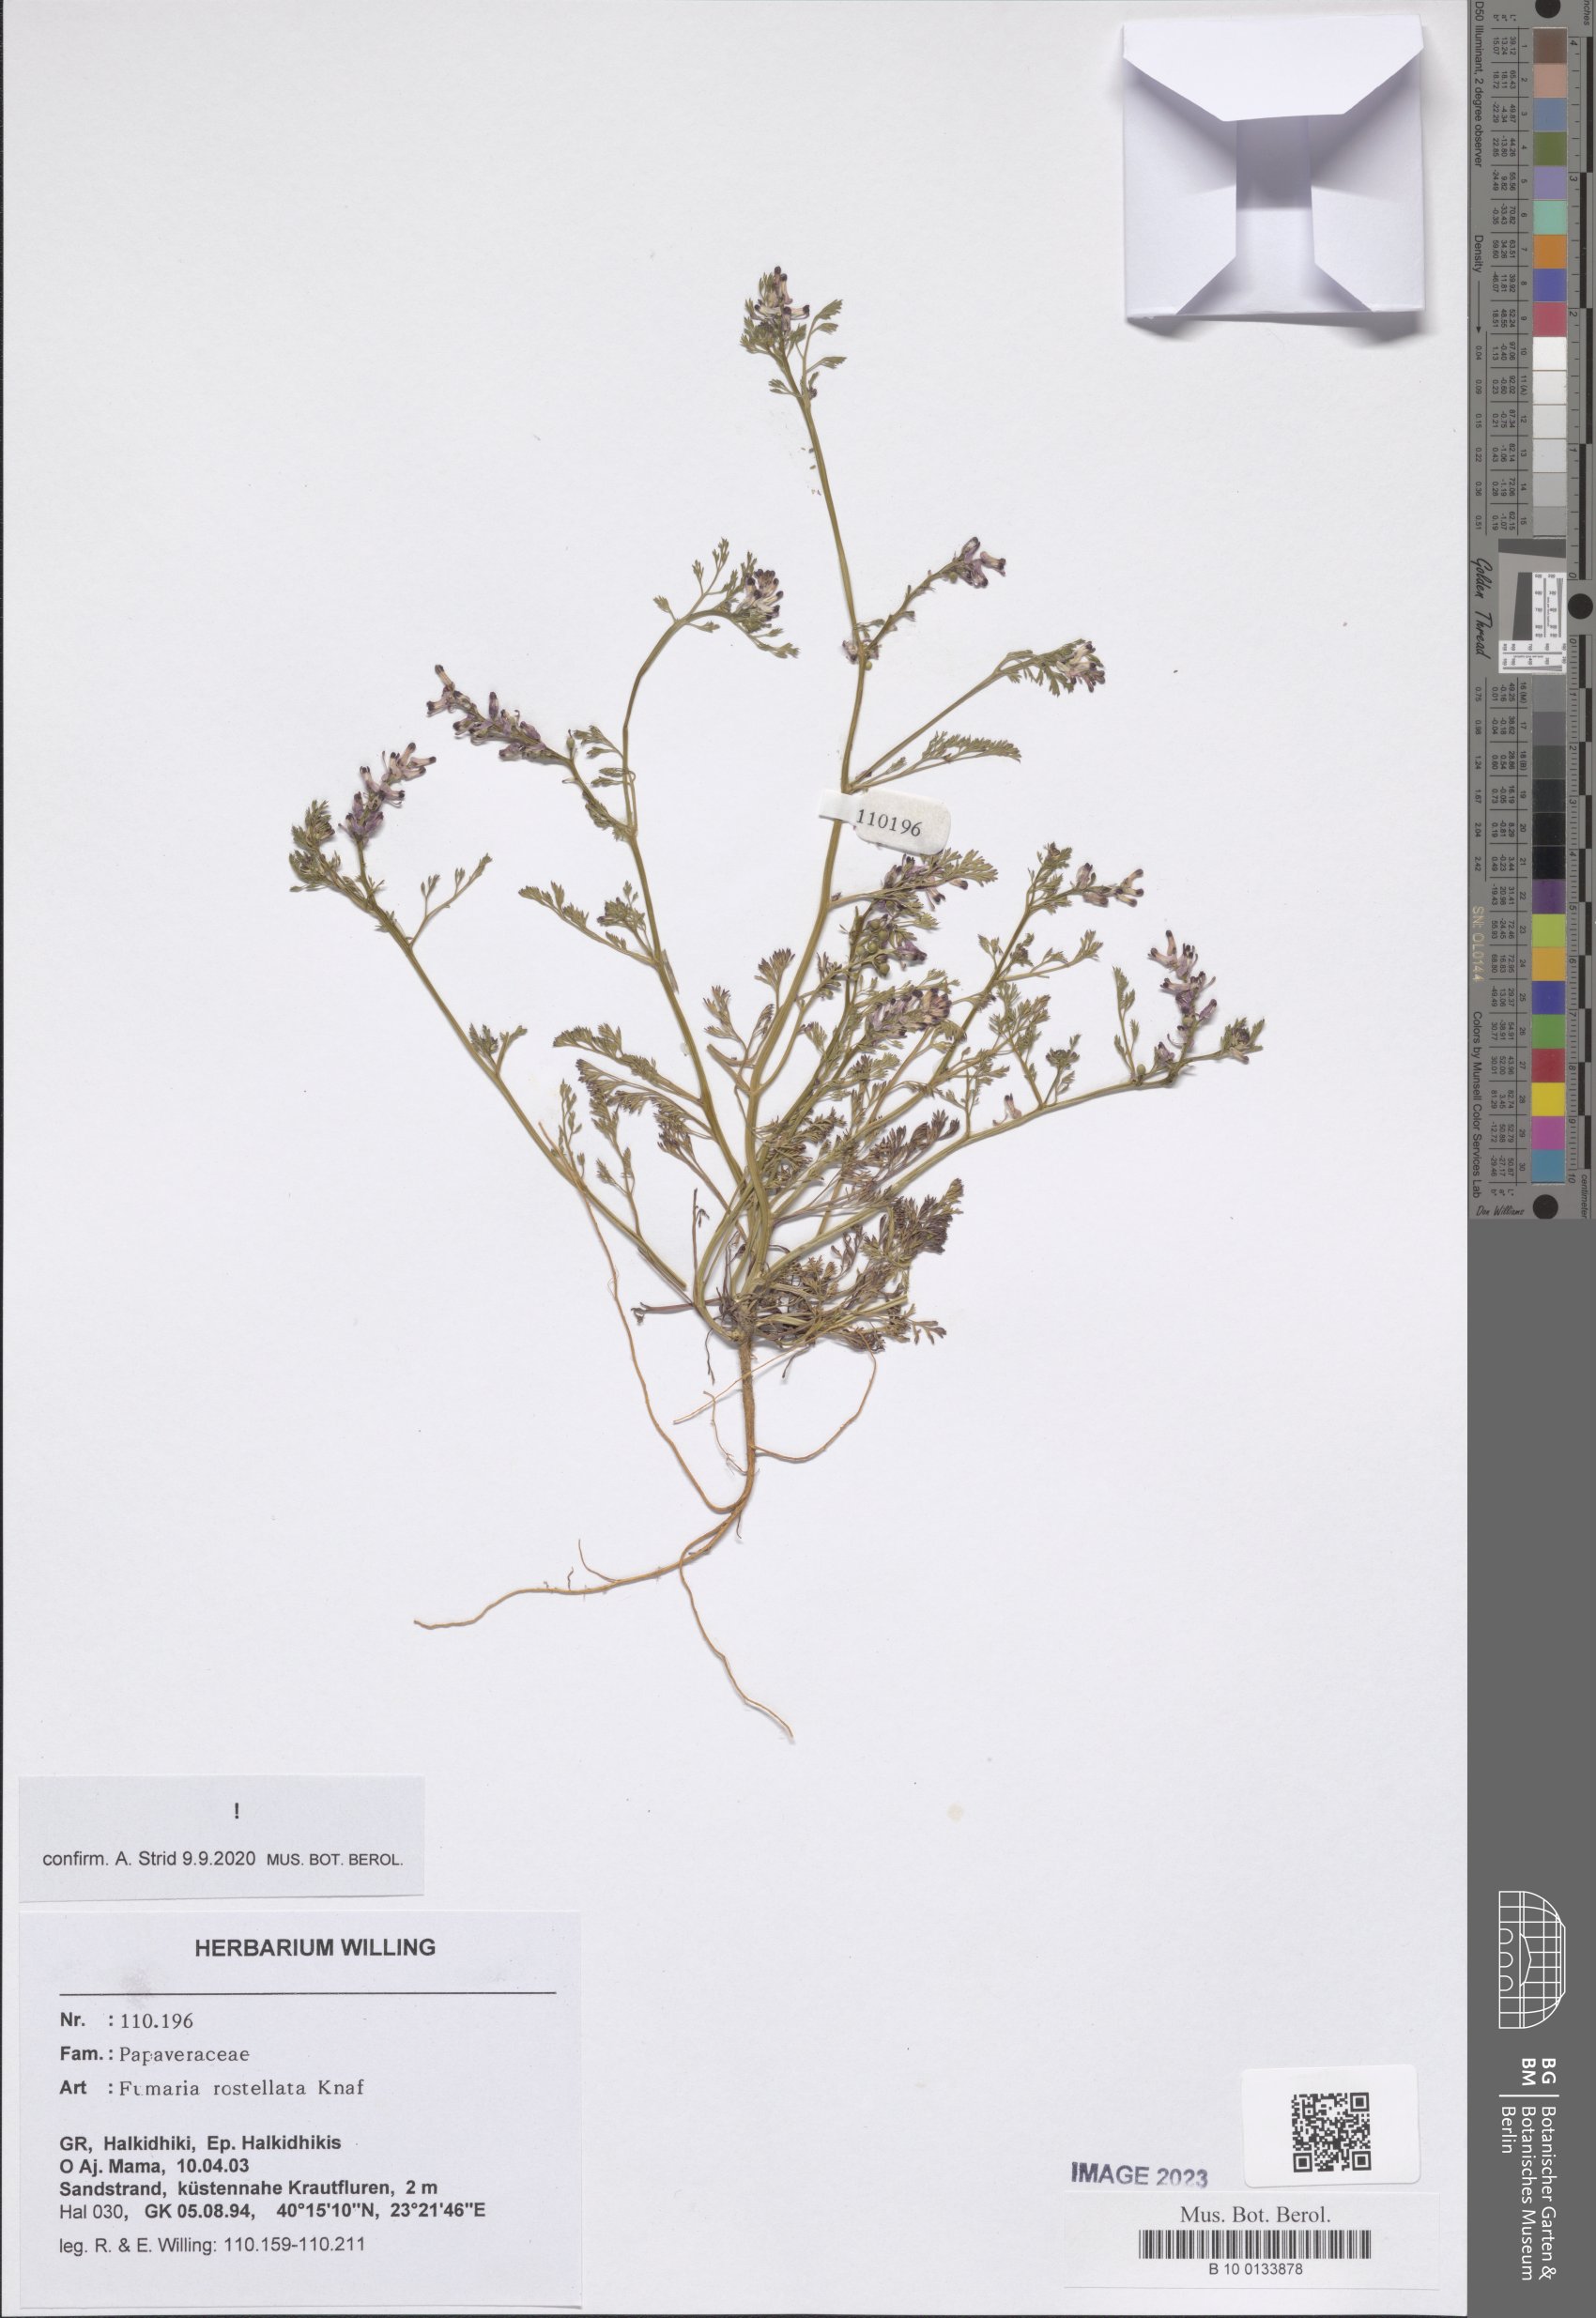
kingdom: Plantae
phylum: Tracheophyta
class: Magnoliopsida
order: Ranunculales
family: Papaveraceae
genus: Fumaria
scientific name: Fumaria rostellata
